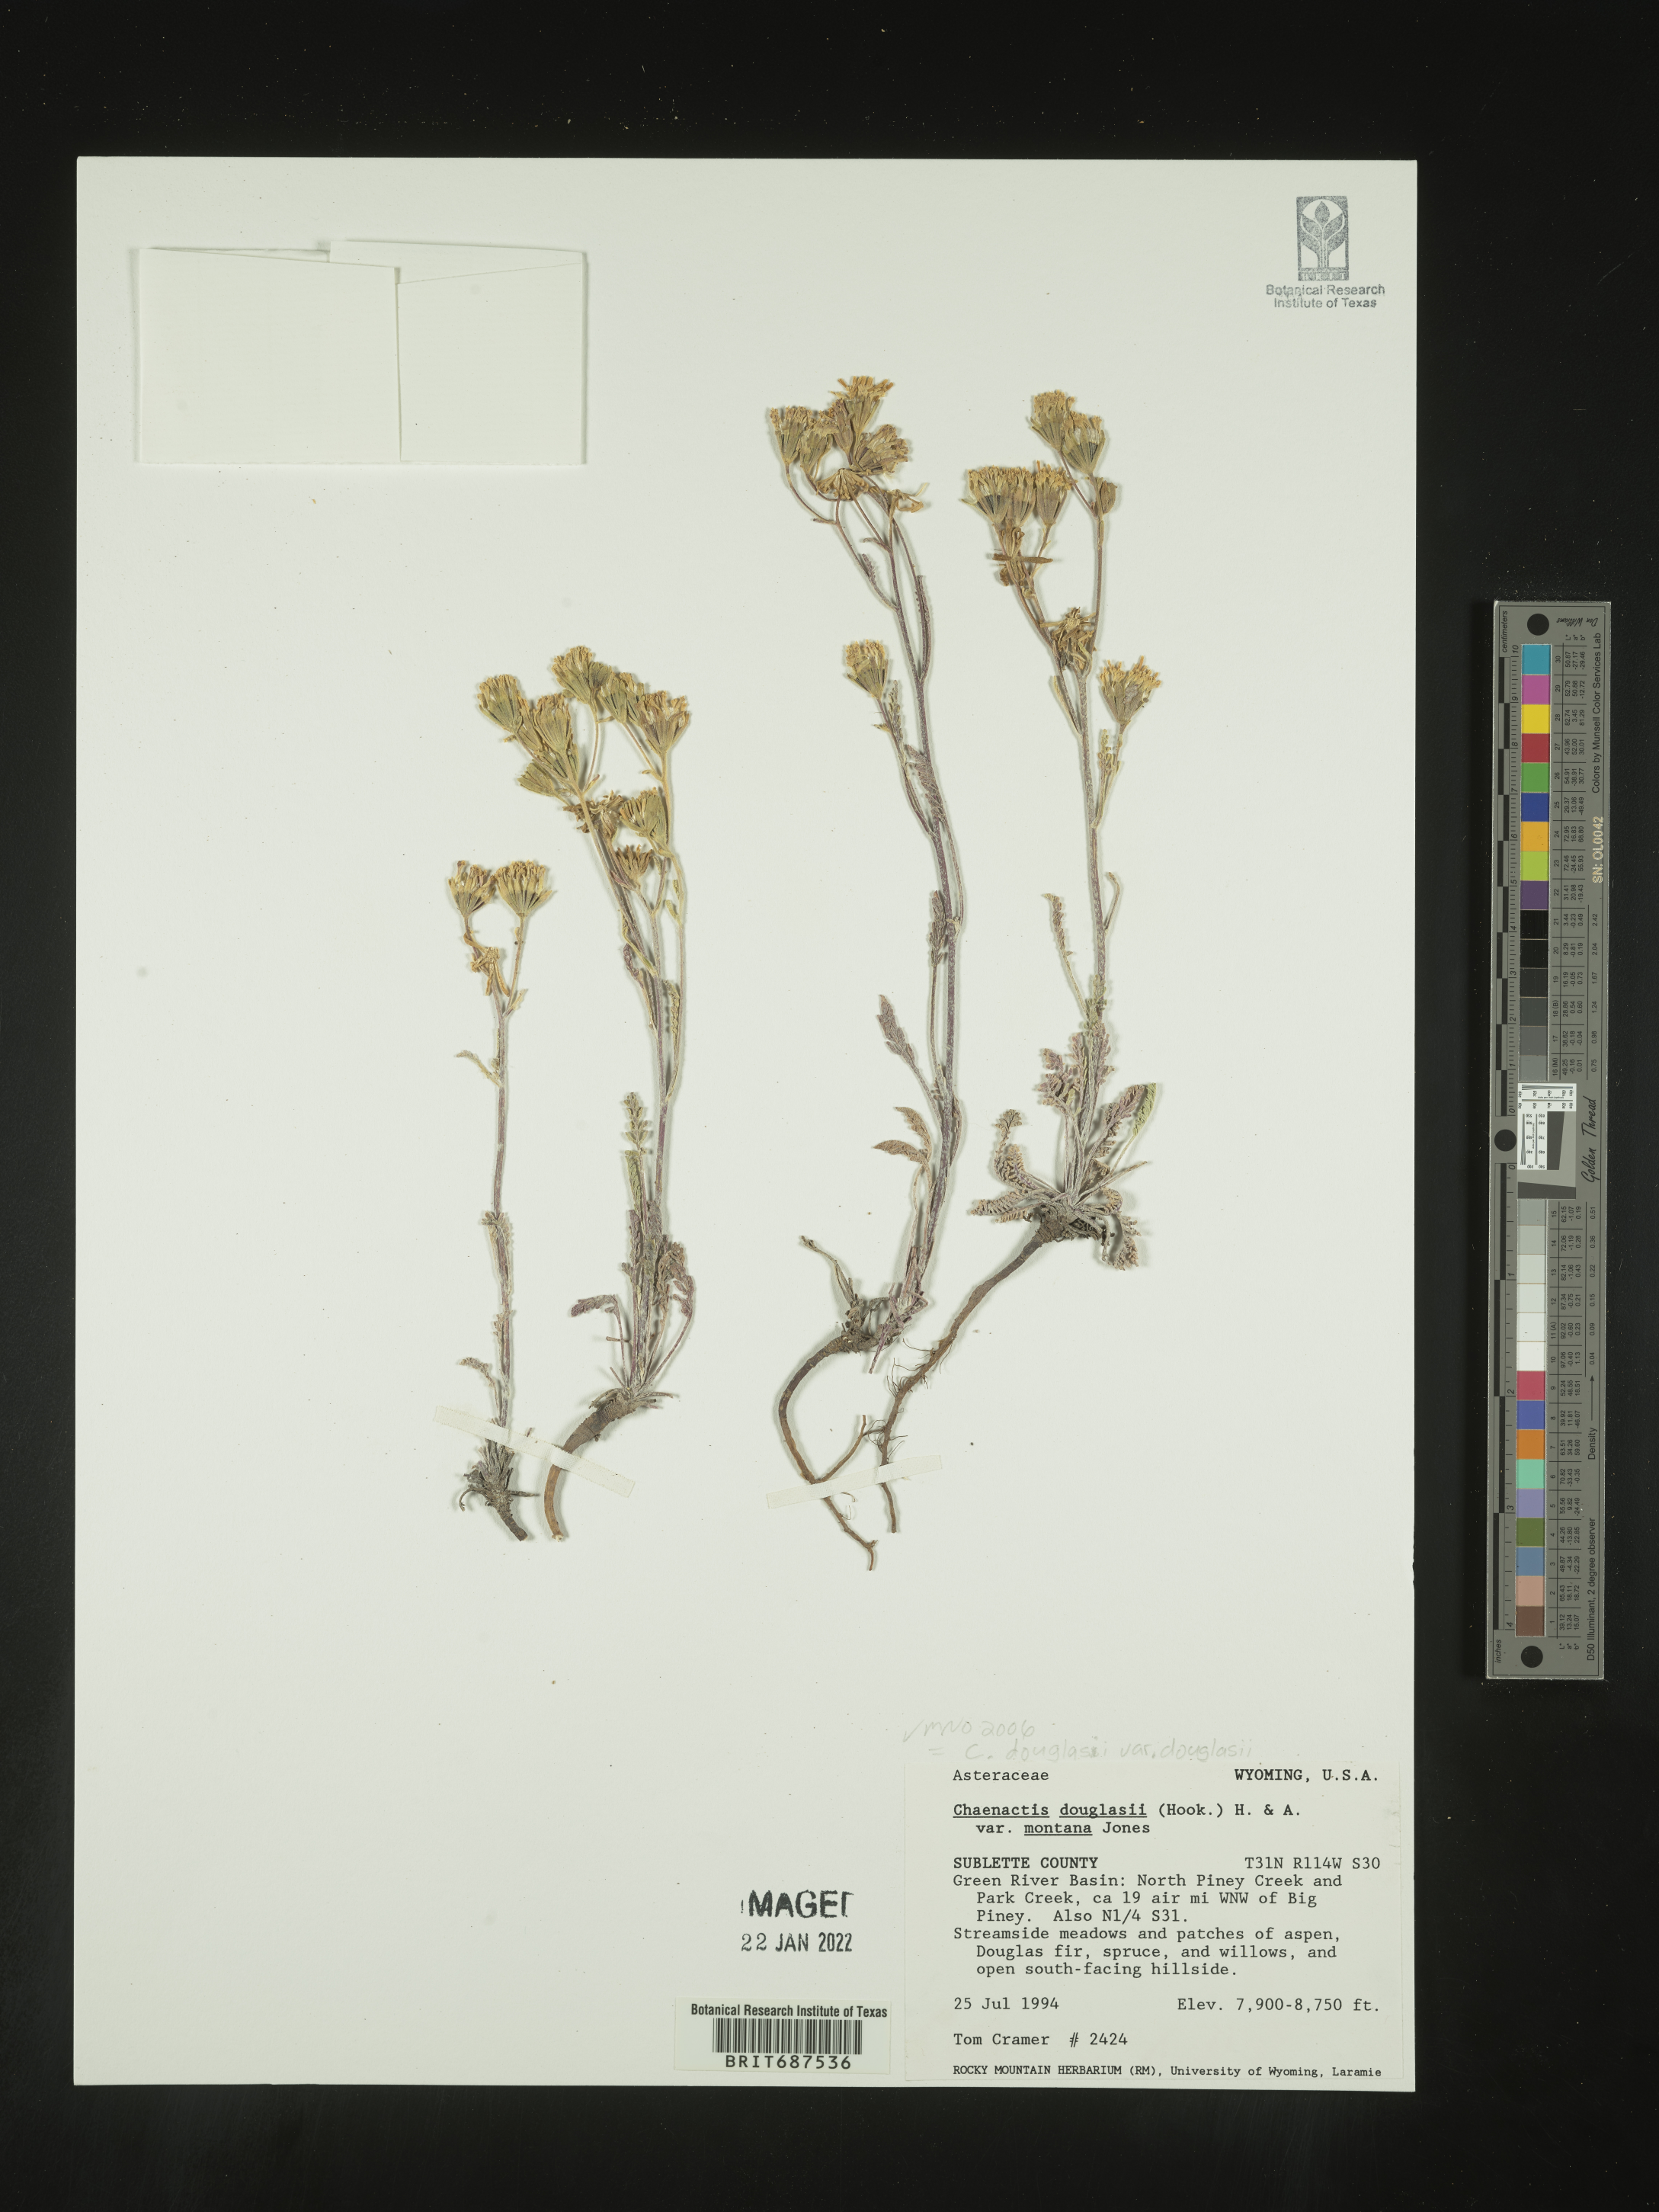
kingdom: Plantae
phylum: Tracheophyta
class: Magnoliopsida
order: Asterales
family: Asteraceae
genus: Chaenactis
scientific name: Chaenactis douglasii
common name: Hoary pincushion
